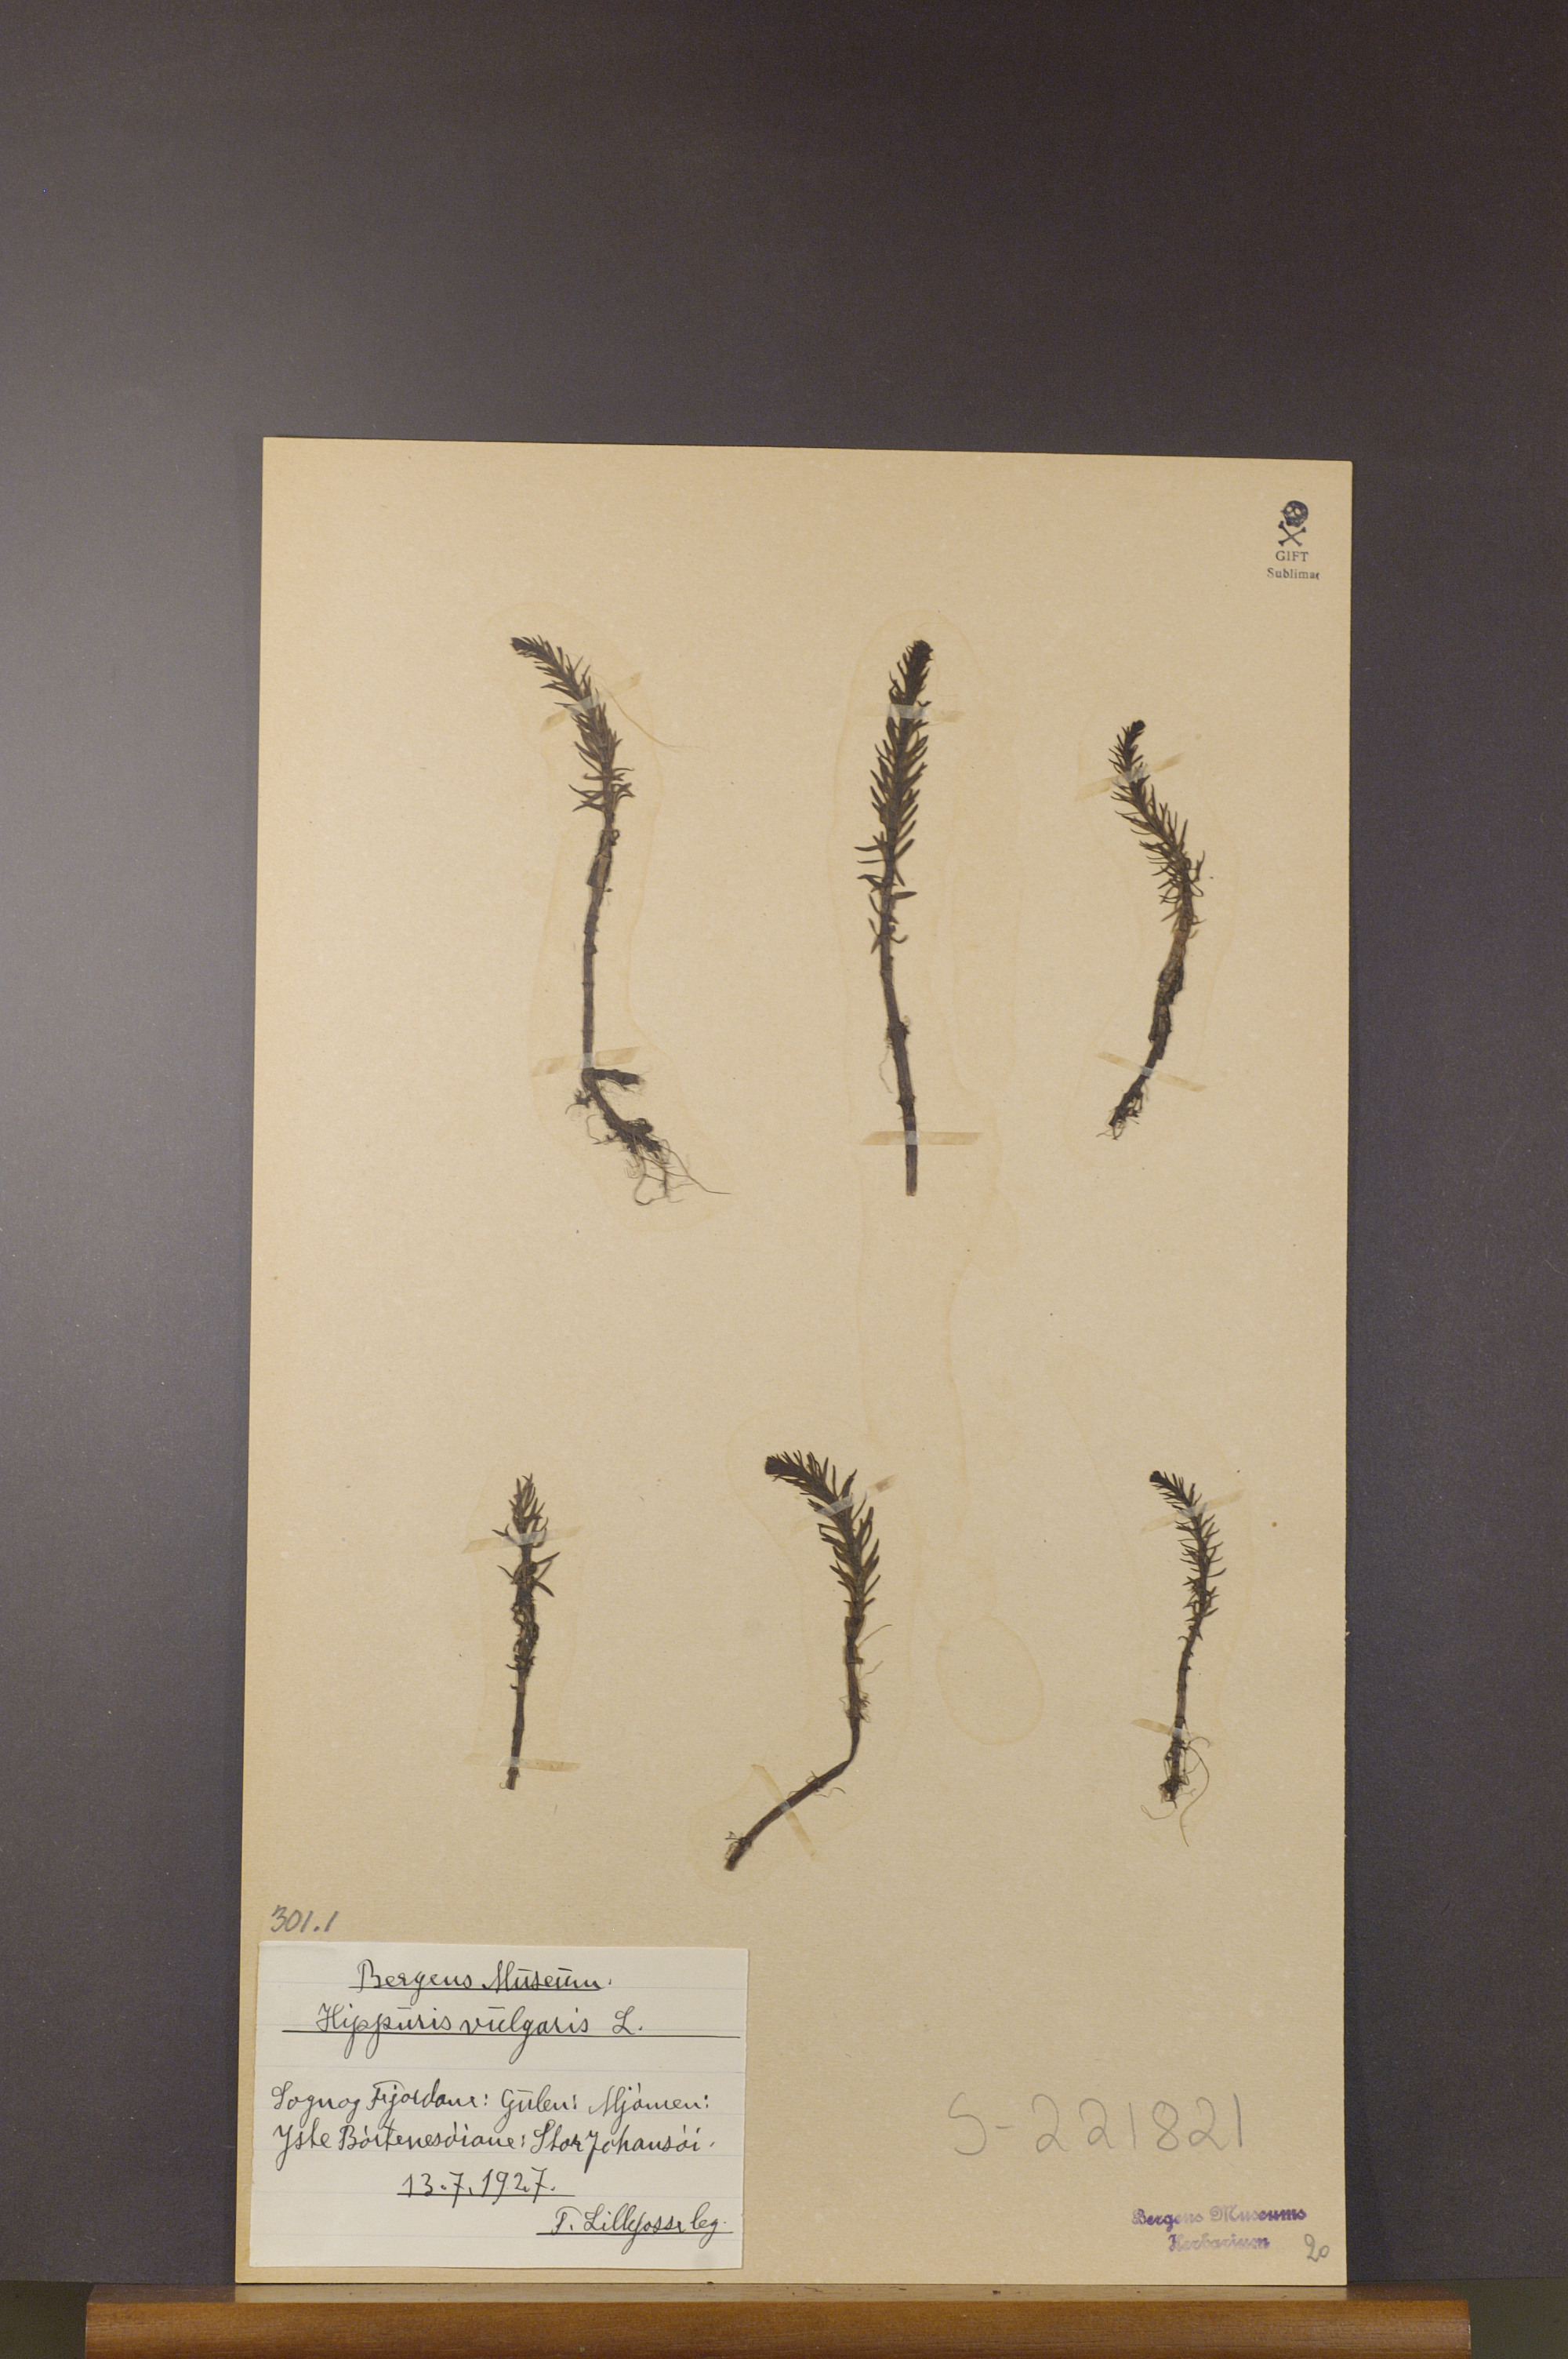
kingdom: Plantae
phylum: Tracheophyta
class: Magnoliopsida
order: Lamiales
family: Plantaginaceae
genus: Hippuris
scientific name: Hippuris vulgaris
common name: Mare's-tail
